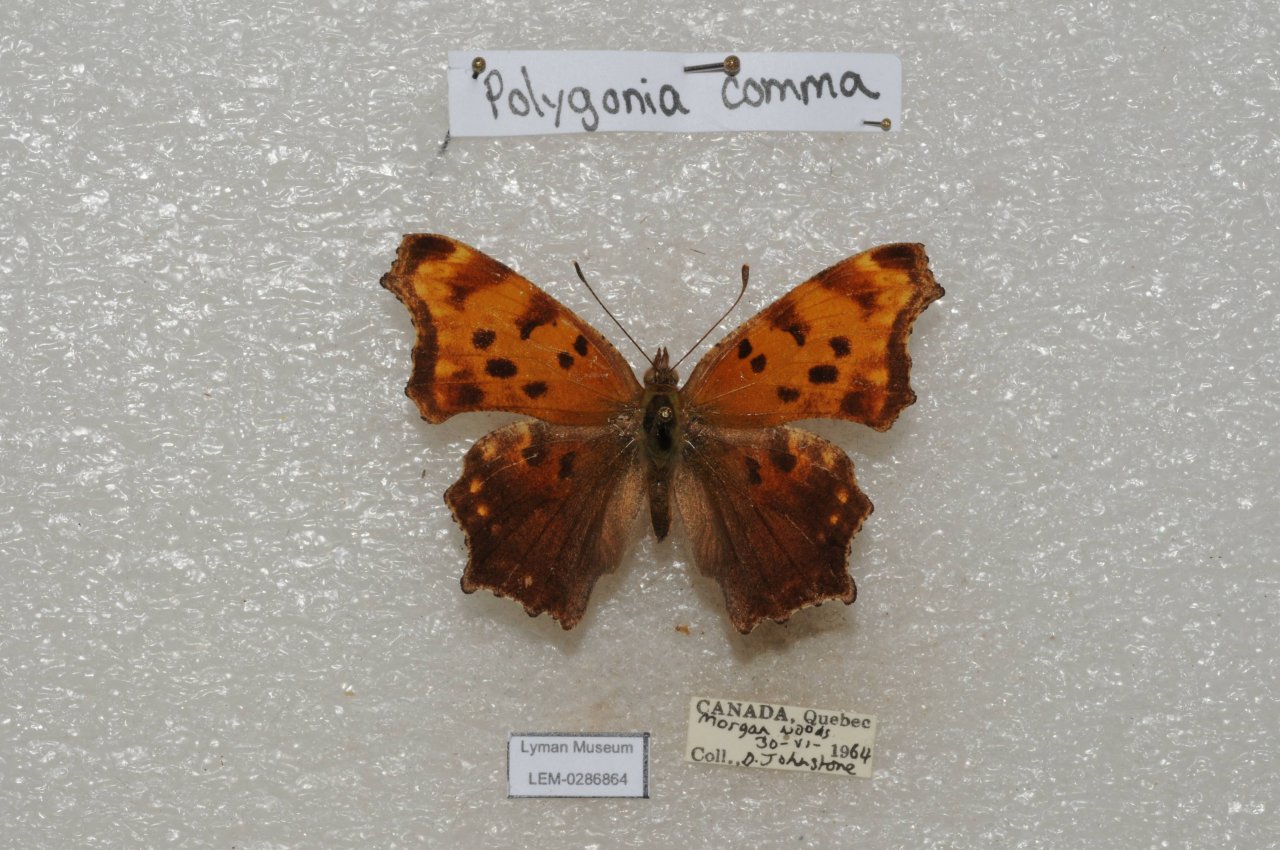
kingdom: Animalia
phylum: Arthropoda
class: Insecta
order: Lepidoptera
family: Nymphalidae
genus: Polygonia
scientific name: Polygonia comma
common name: Eastern Comma
